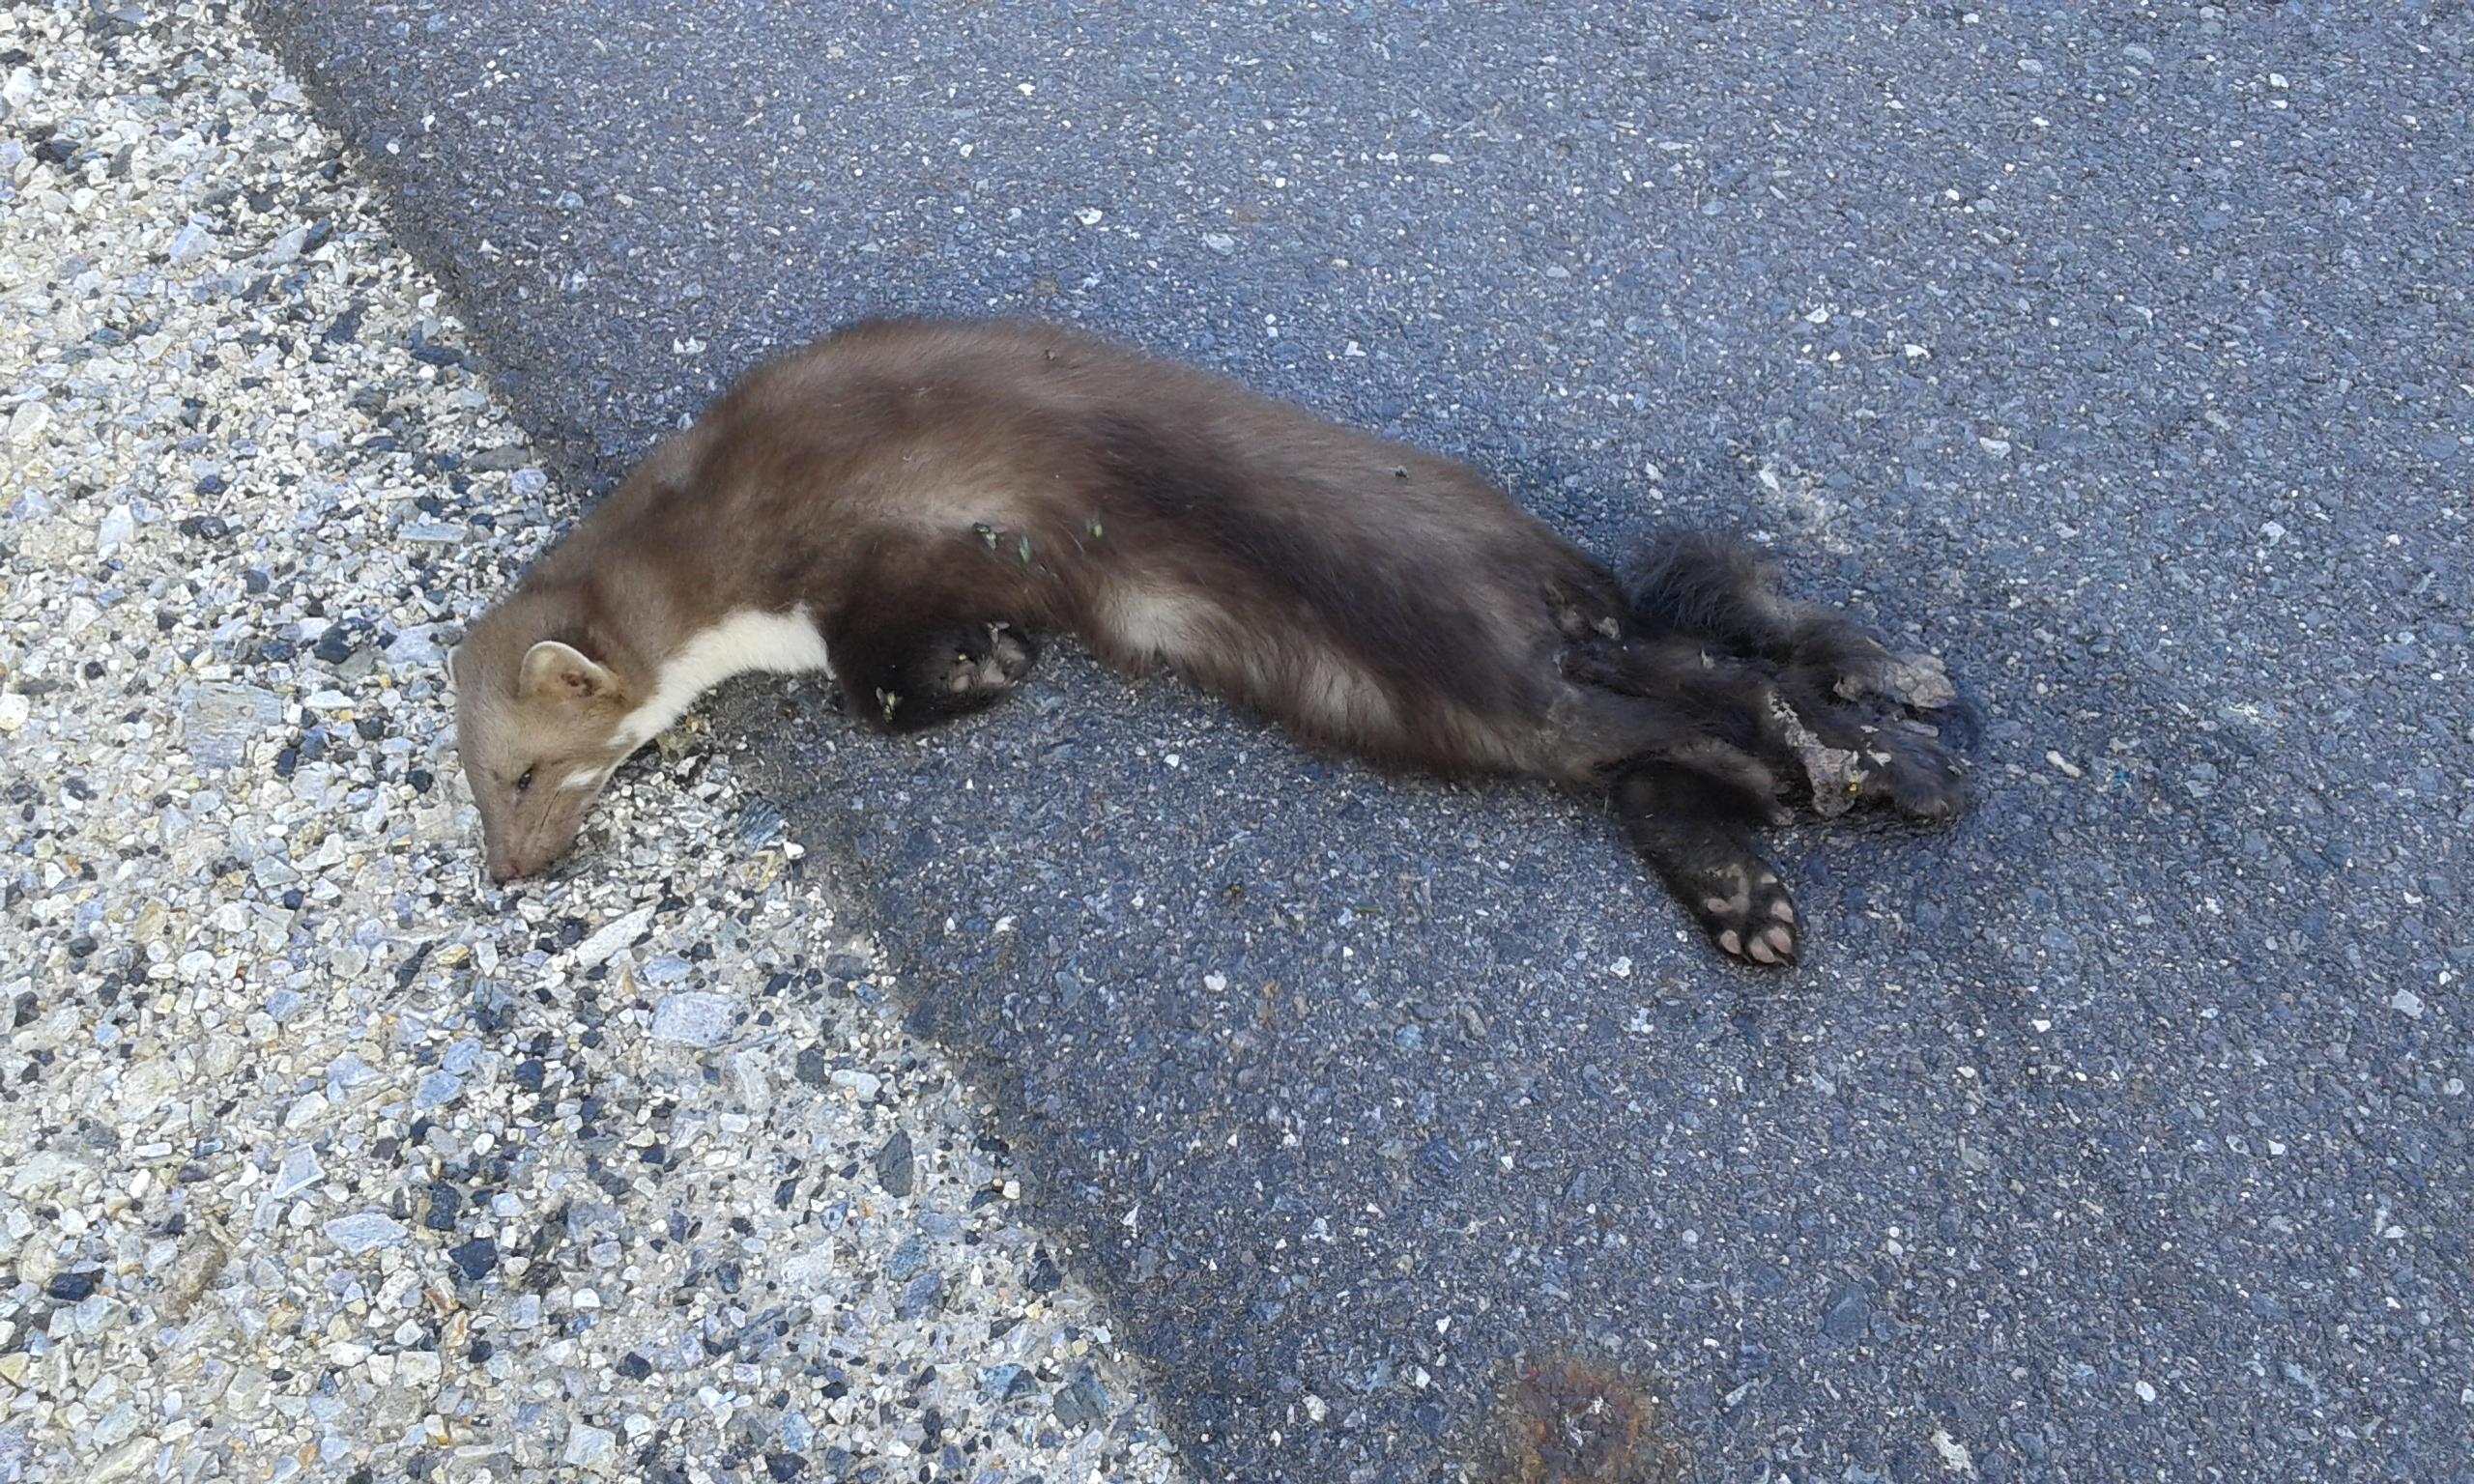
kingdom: Animalia
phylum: Chordata
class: Mammalia
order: Carnivora
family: Mustelidae
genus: Martes
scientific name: Martes foina
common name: Beech marten
